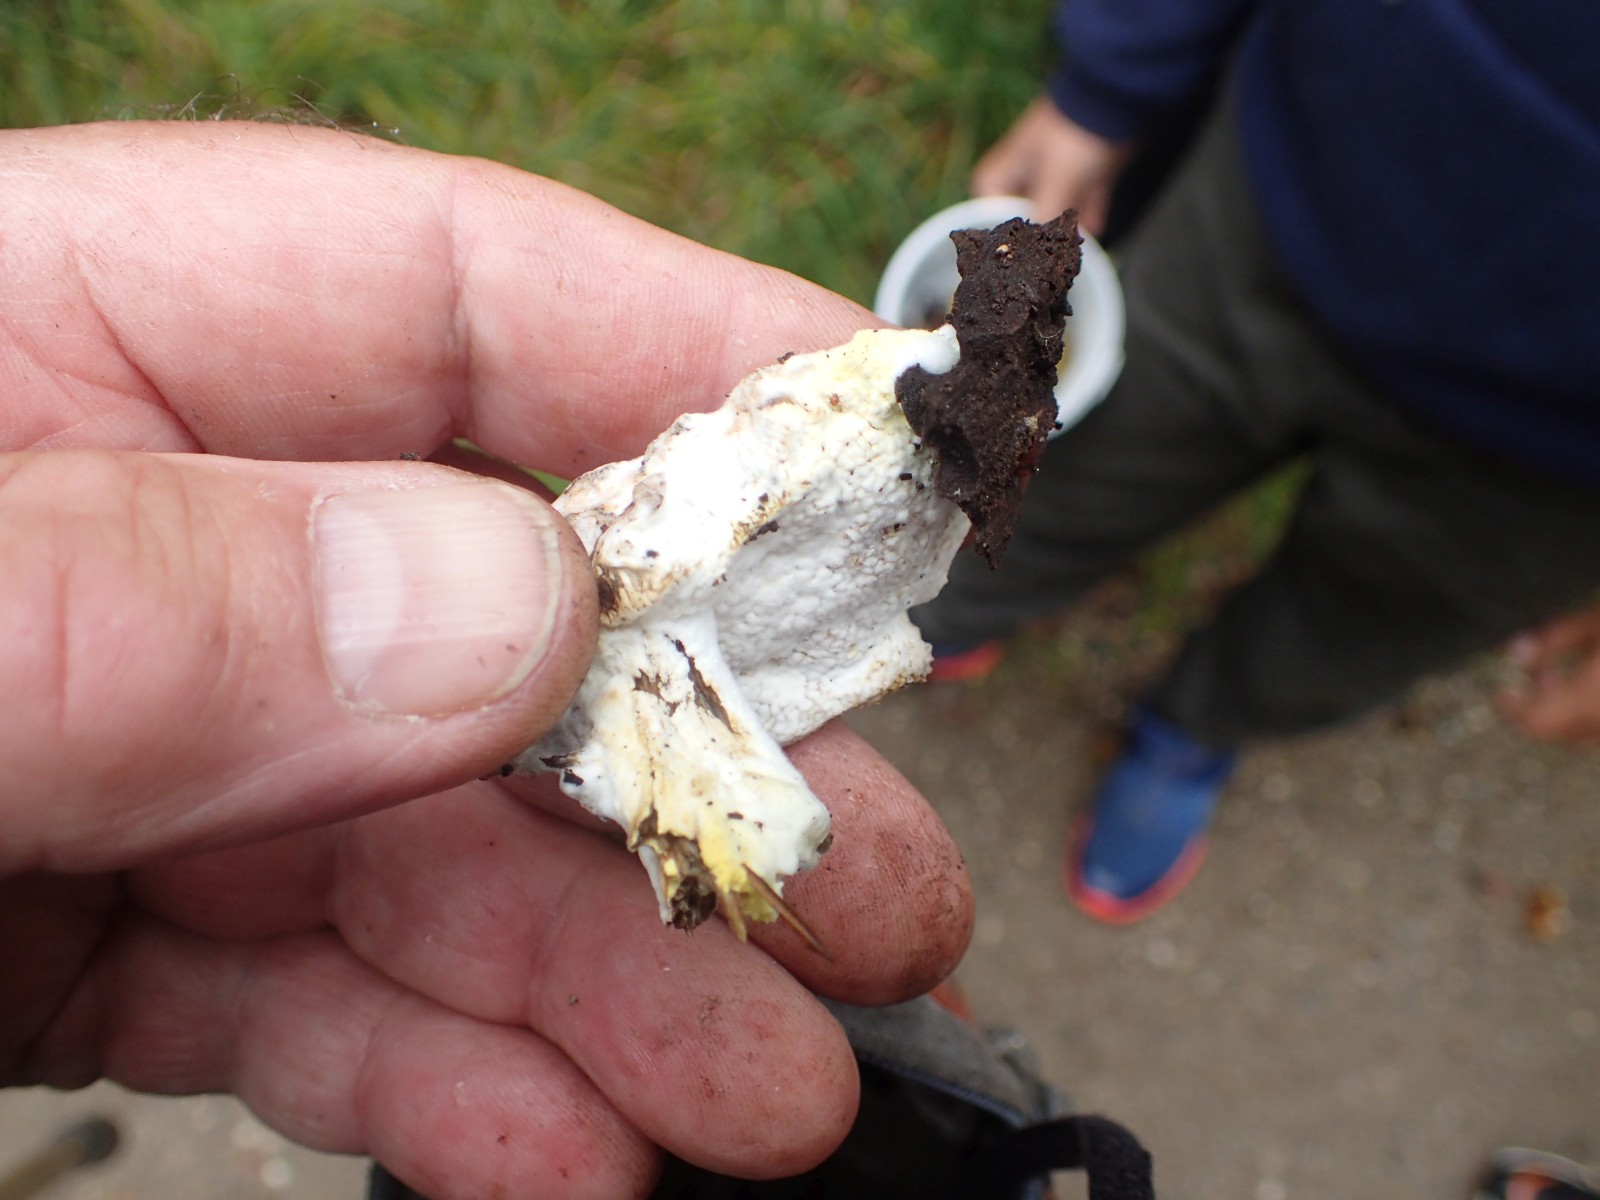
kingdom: Fungi
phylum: Ascomycota
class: Sordariomycetes
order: Hypocreales
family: Hypocreaceae
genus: Hypomyces
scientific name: Hypomyces
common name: snylteskorpe
